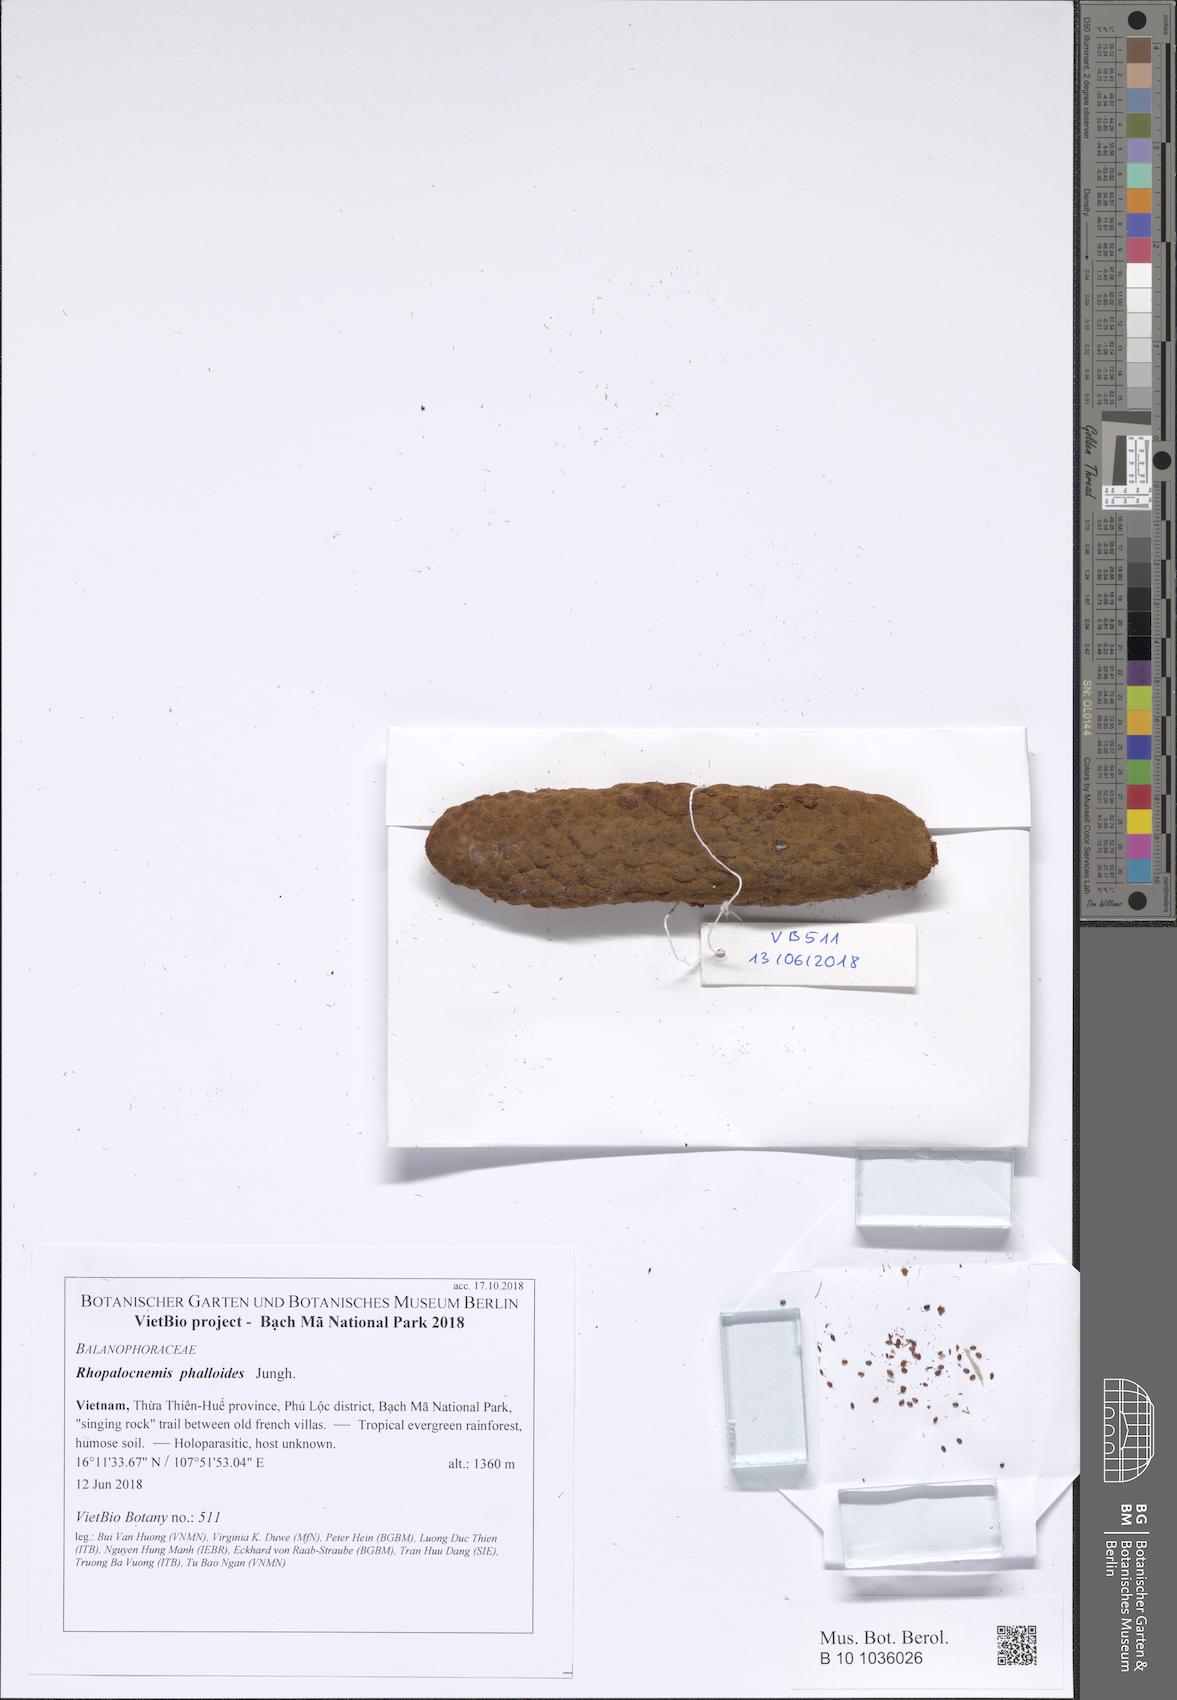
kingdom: Plantae
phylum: Tracheophyta
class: Magnoliopsida
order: Santalales
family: Balanophoraceae
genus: Rhopalocnemis
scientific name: Rhopalocnemis phalloides
